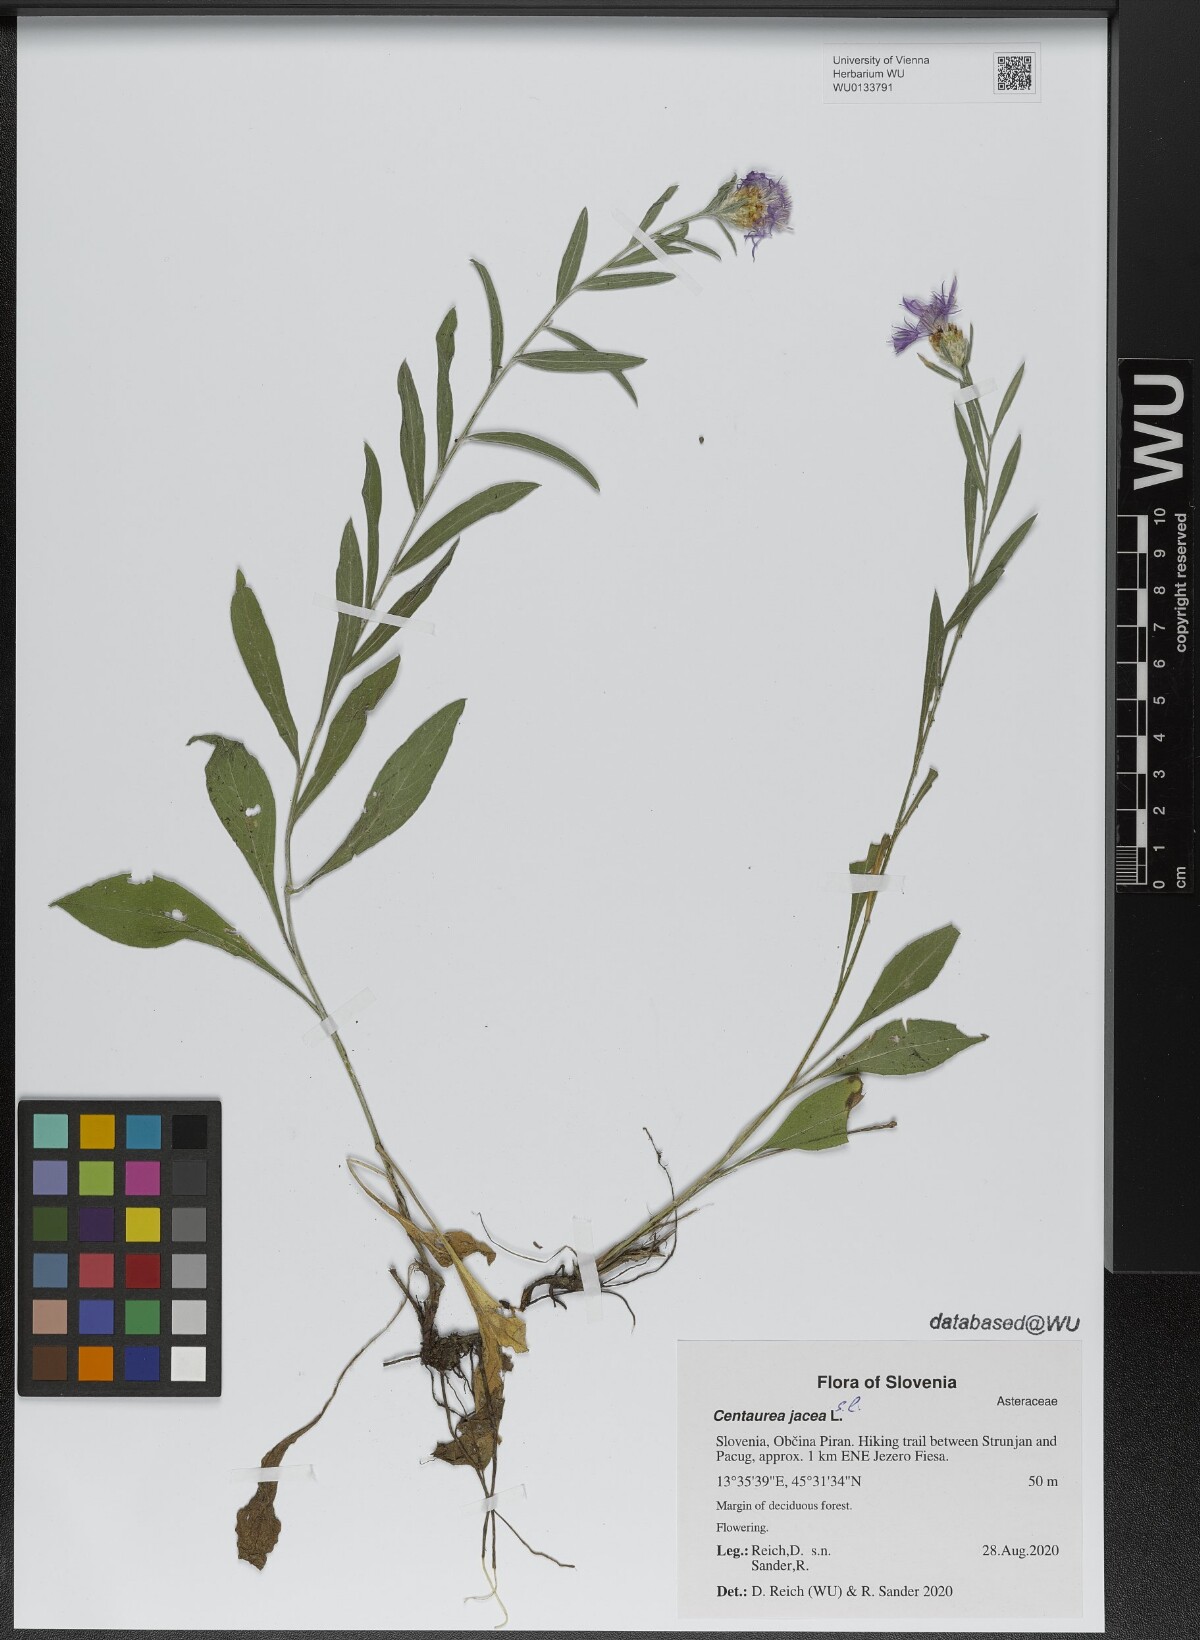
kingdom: Plantae
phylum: Tracheophyta
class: Magnoliopsida
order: Asterales
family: Asteraceae
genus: Centaurea
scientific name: Centaurea jacea
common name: Brown knapweed
